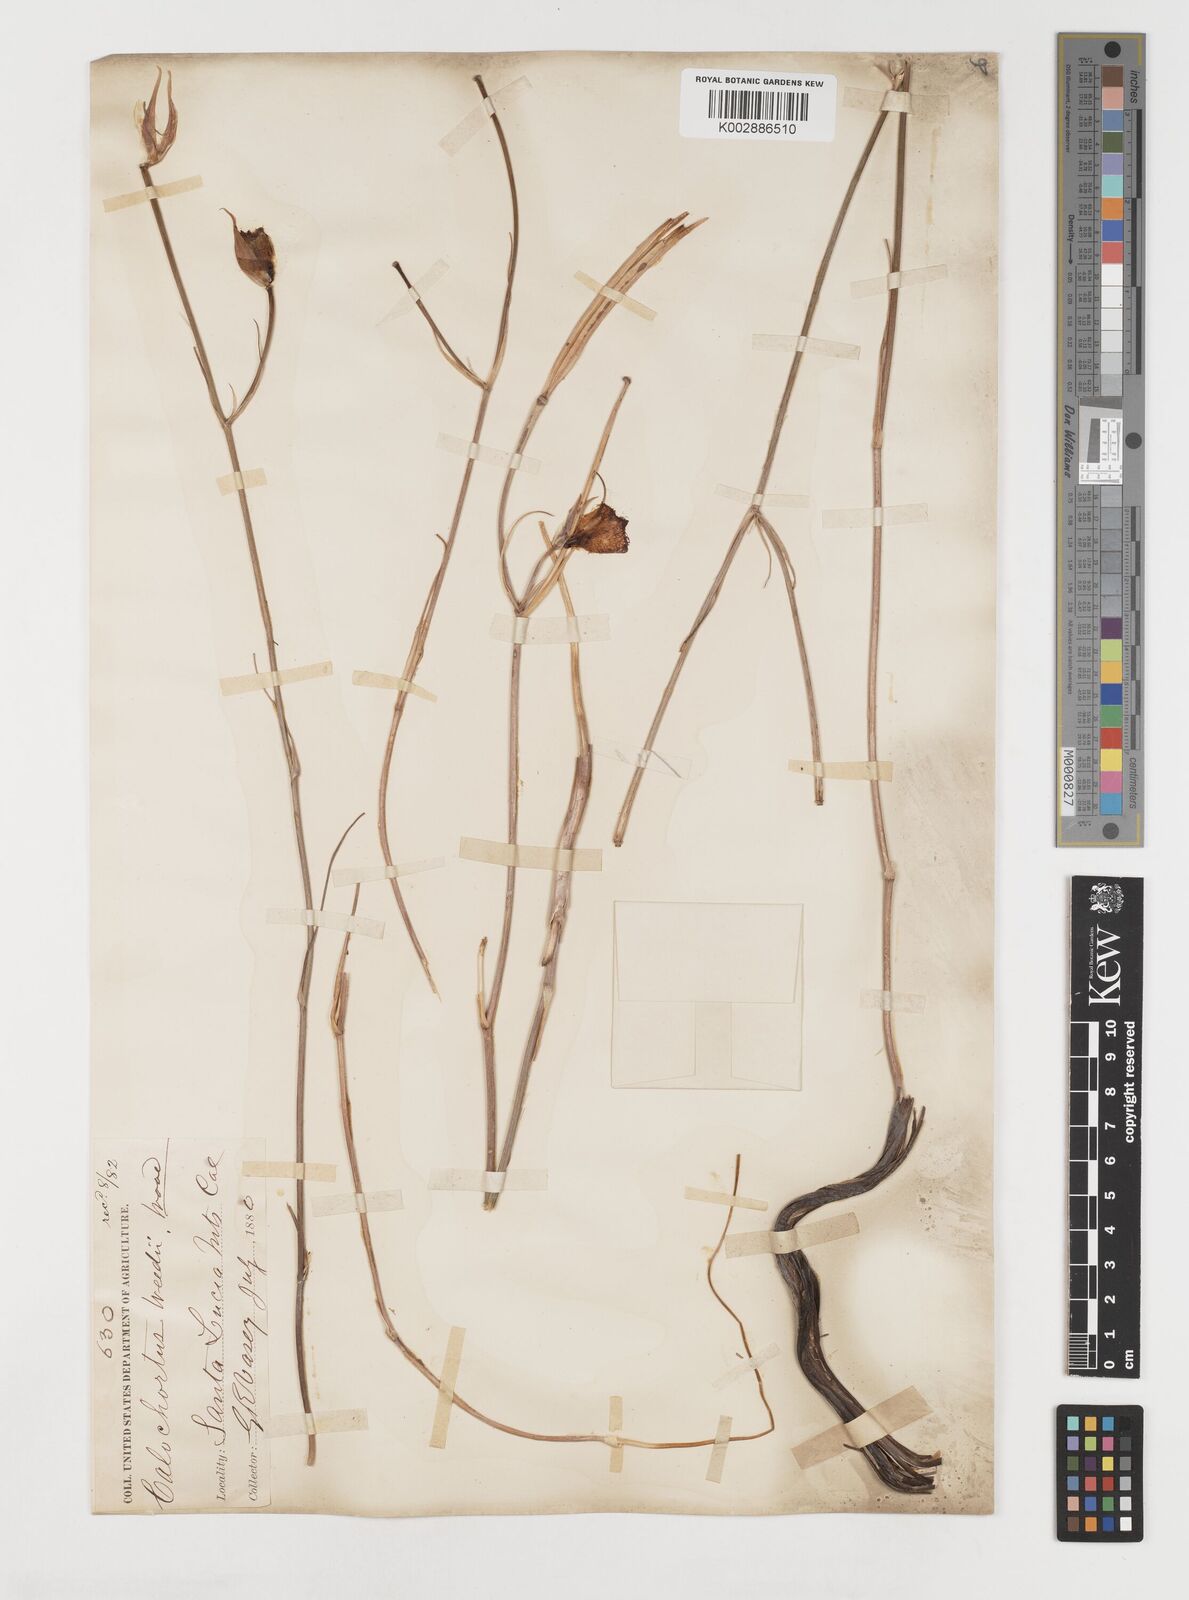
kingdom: Plantae
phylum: Tracheophyta
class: Liliopsida
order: Liliales
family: Liliaceae
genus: Calochortus
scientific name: Calochortus weedii
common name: Weed's mariposa-lily
